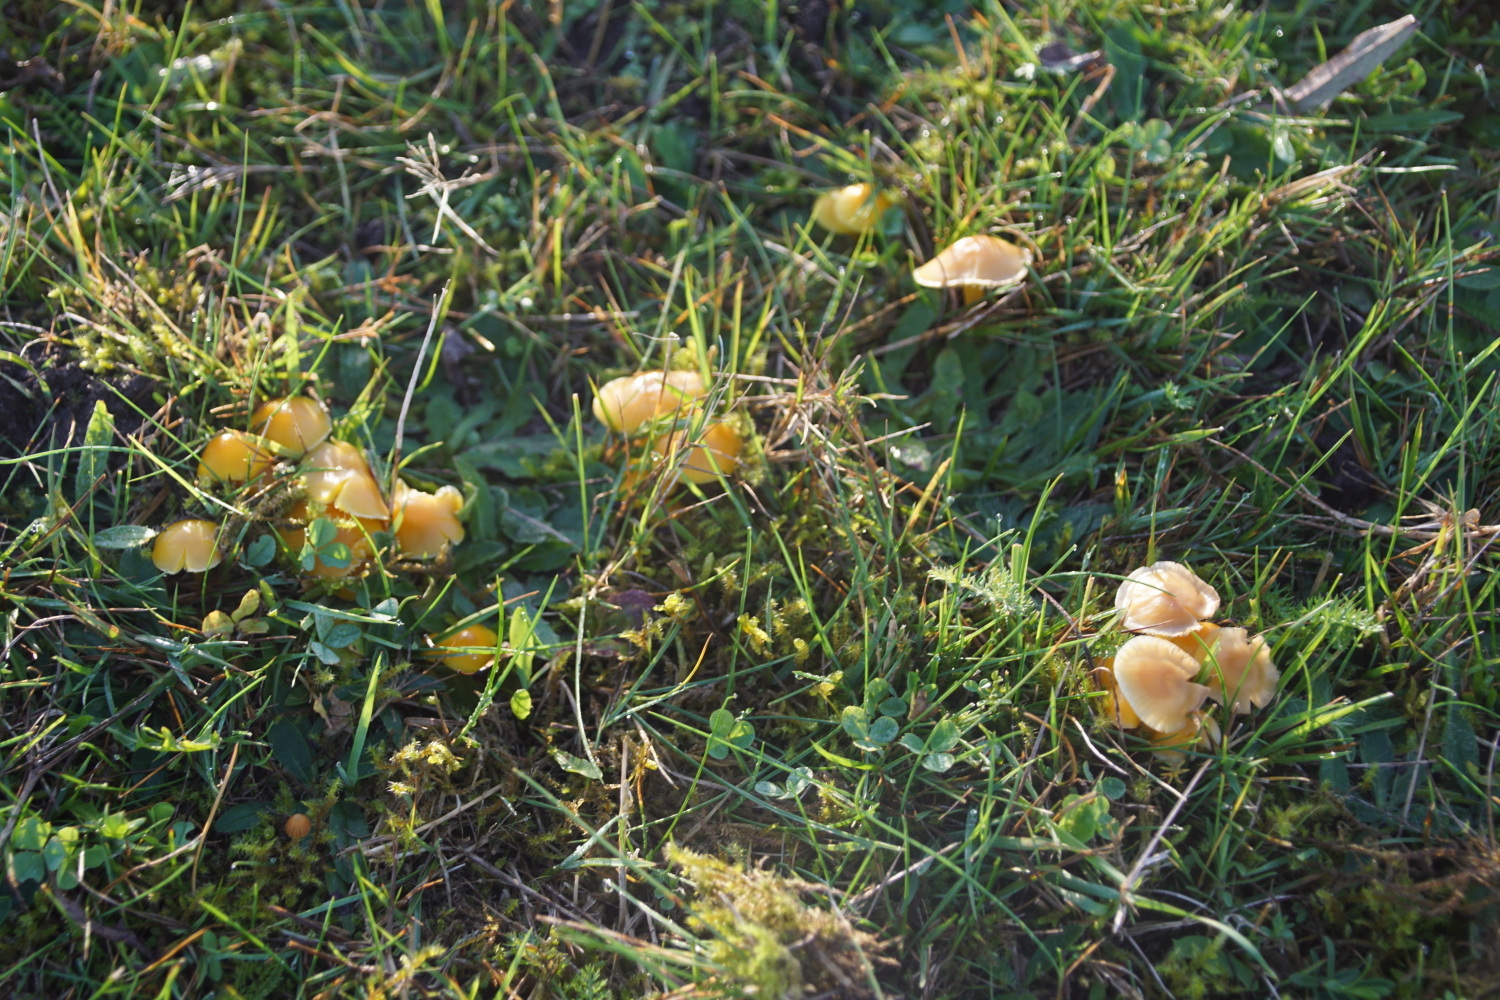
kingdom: Fungi
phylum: Basidiomycota
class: Agaricomycetes
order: Agaricales
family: Hygrophoraceae
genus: Hygrocybe
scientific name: Hygrocybe ceracea
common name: voksgul vokshat
